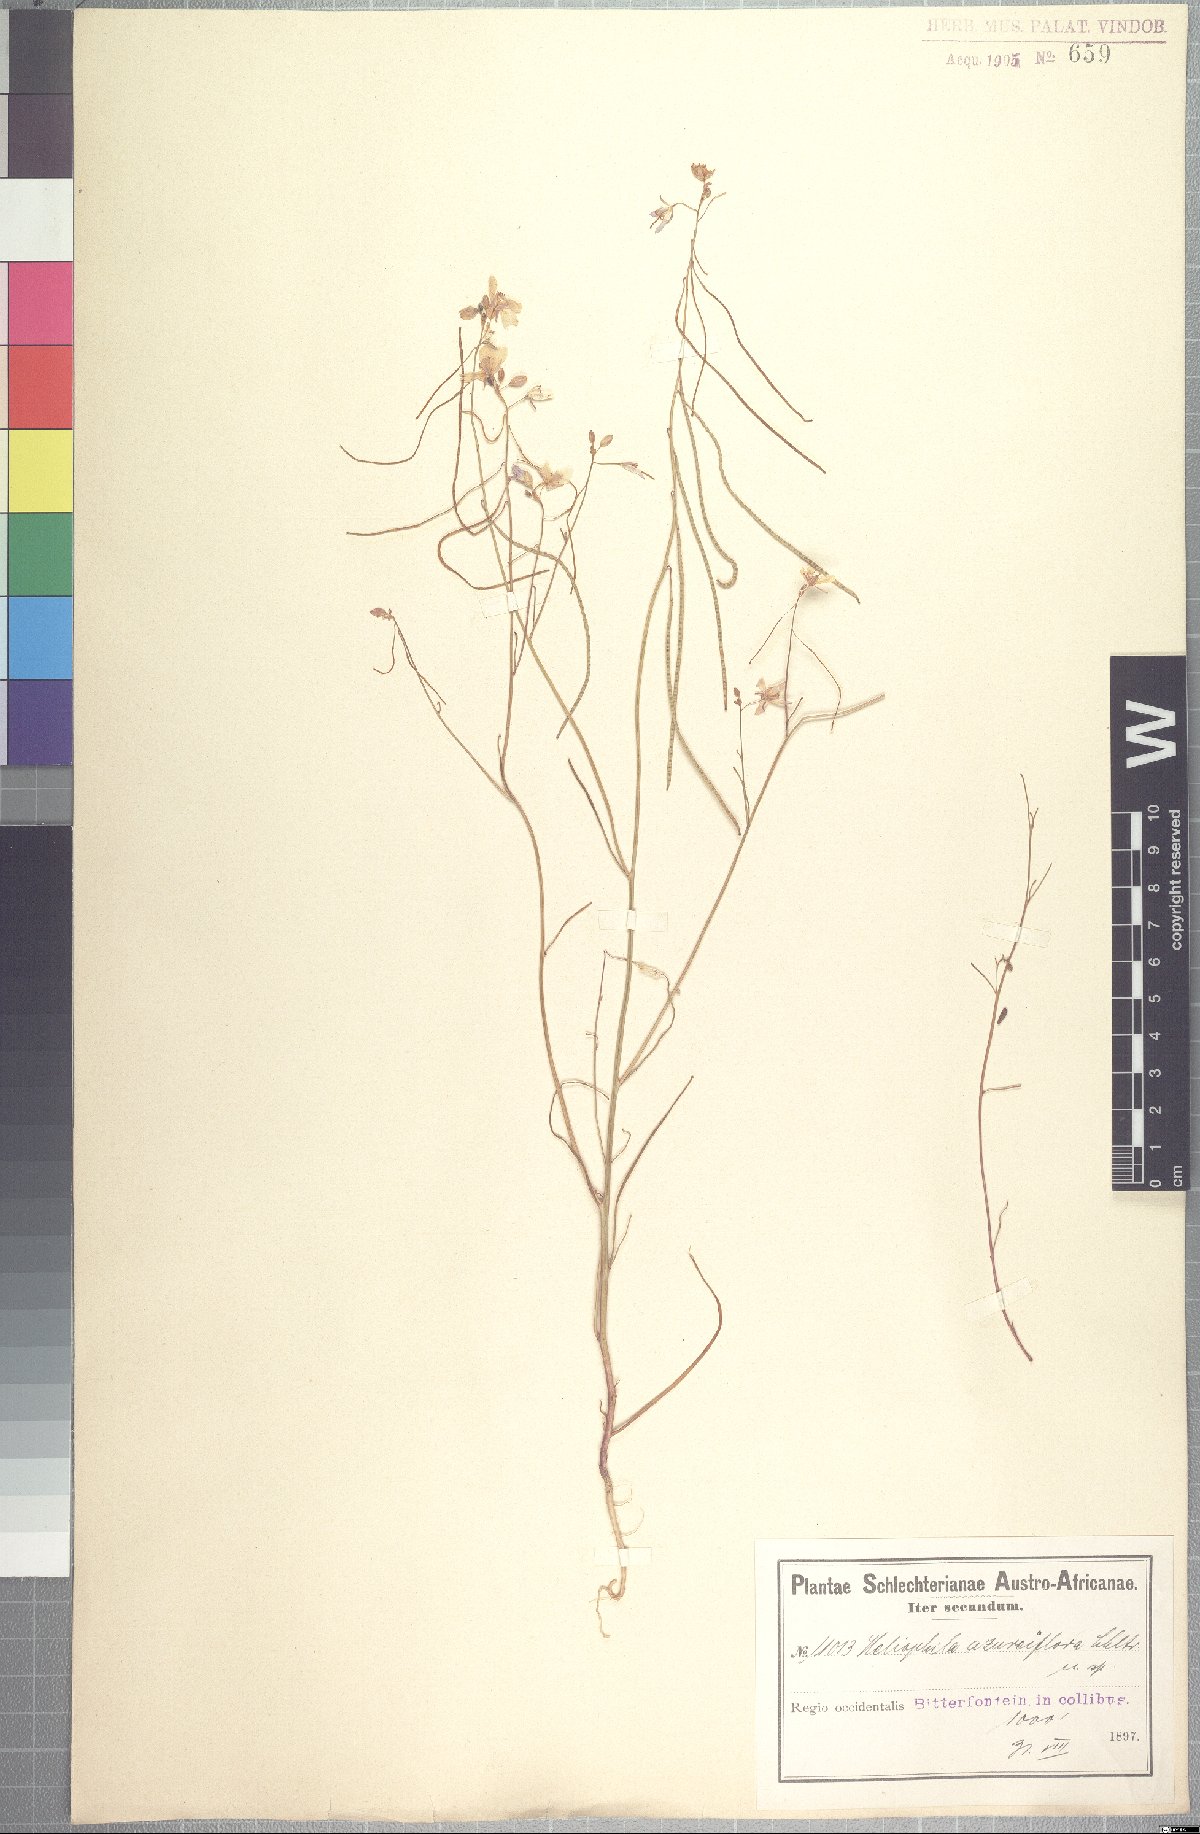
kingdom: Plantae
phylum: Tracheophyta
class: Magnoliopsida
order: Brassicales
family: Brassicaceae
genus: Heliophila
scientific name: Heliophila lactea
